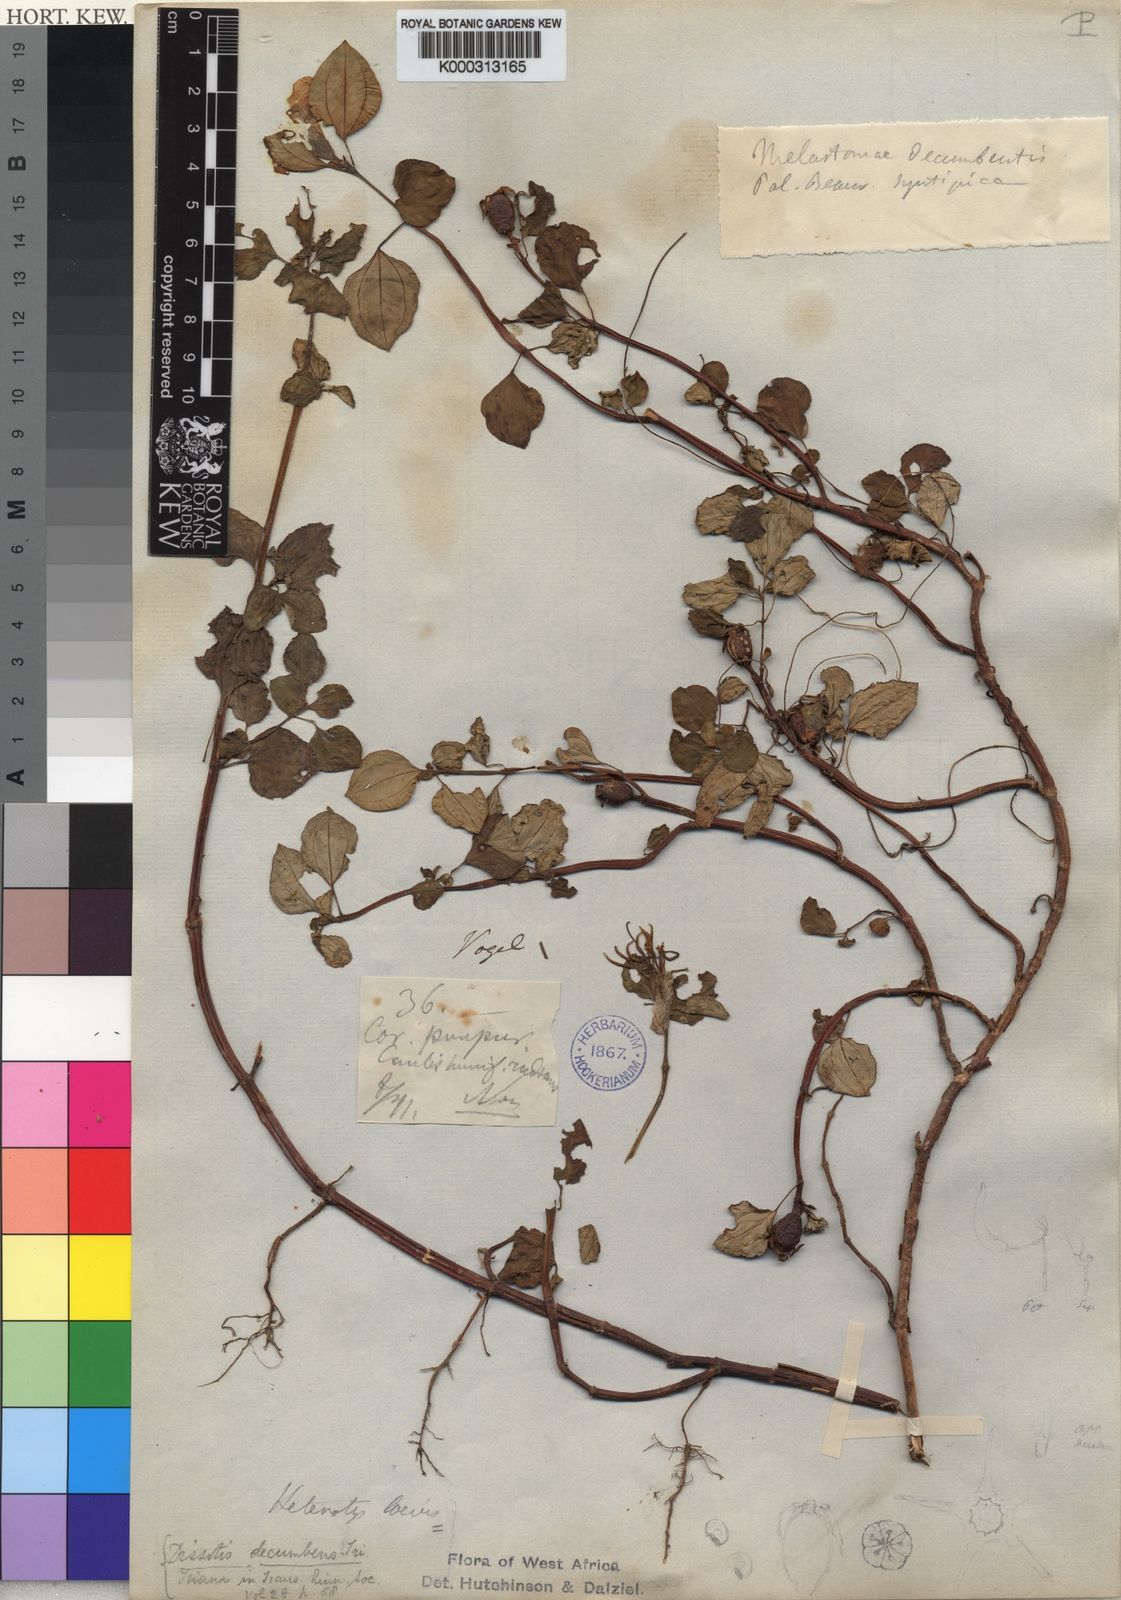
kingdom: Plantae
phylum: Tracheophyta
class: Magnoliopsida
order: Myrtales
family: Melastomataceae
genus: Heterotis
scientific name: Heterotis
